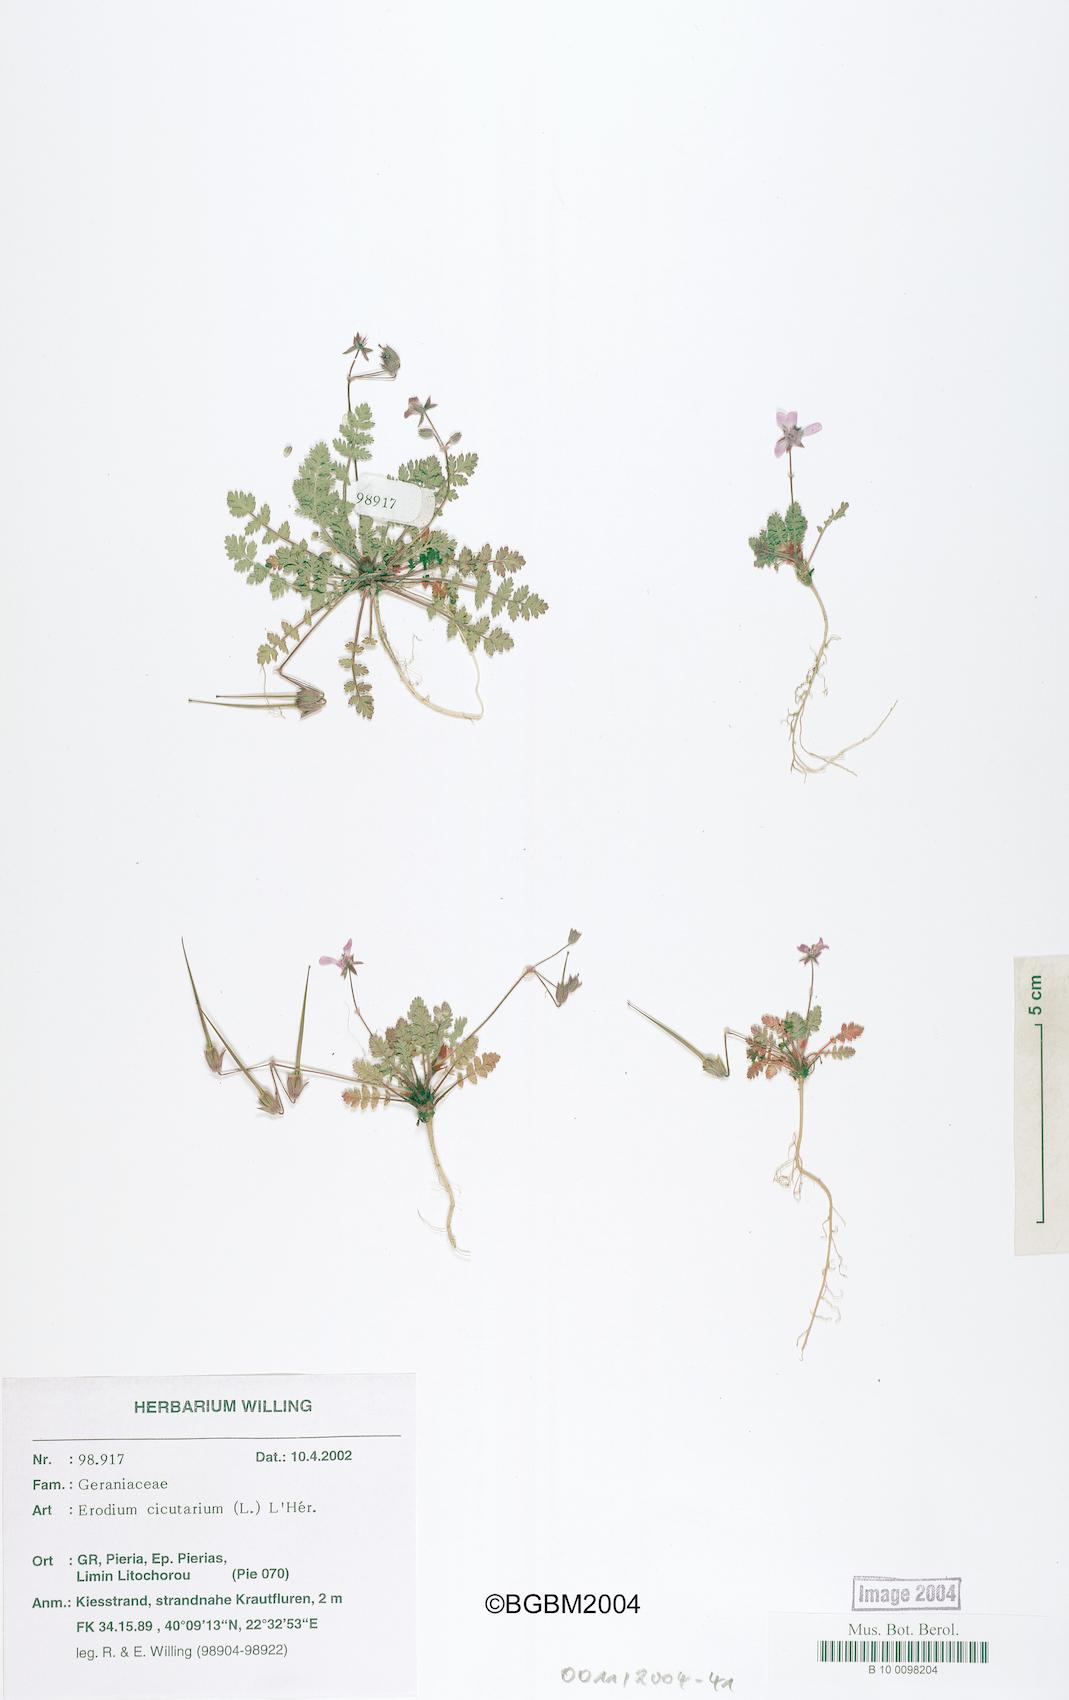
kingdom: Plantae
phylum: Tracheophyta
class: Magnoliopsida
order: Geraniales
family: Geraniaceae
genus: Erodium
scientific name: Erodium cicutarium
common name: Common stork's-bill
